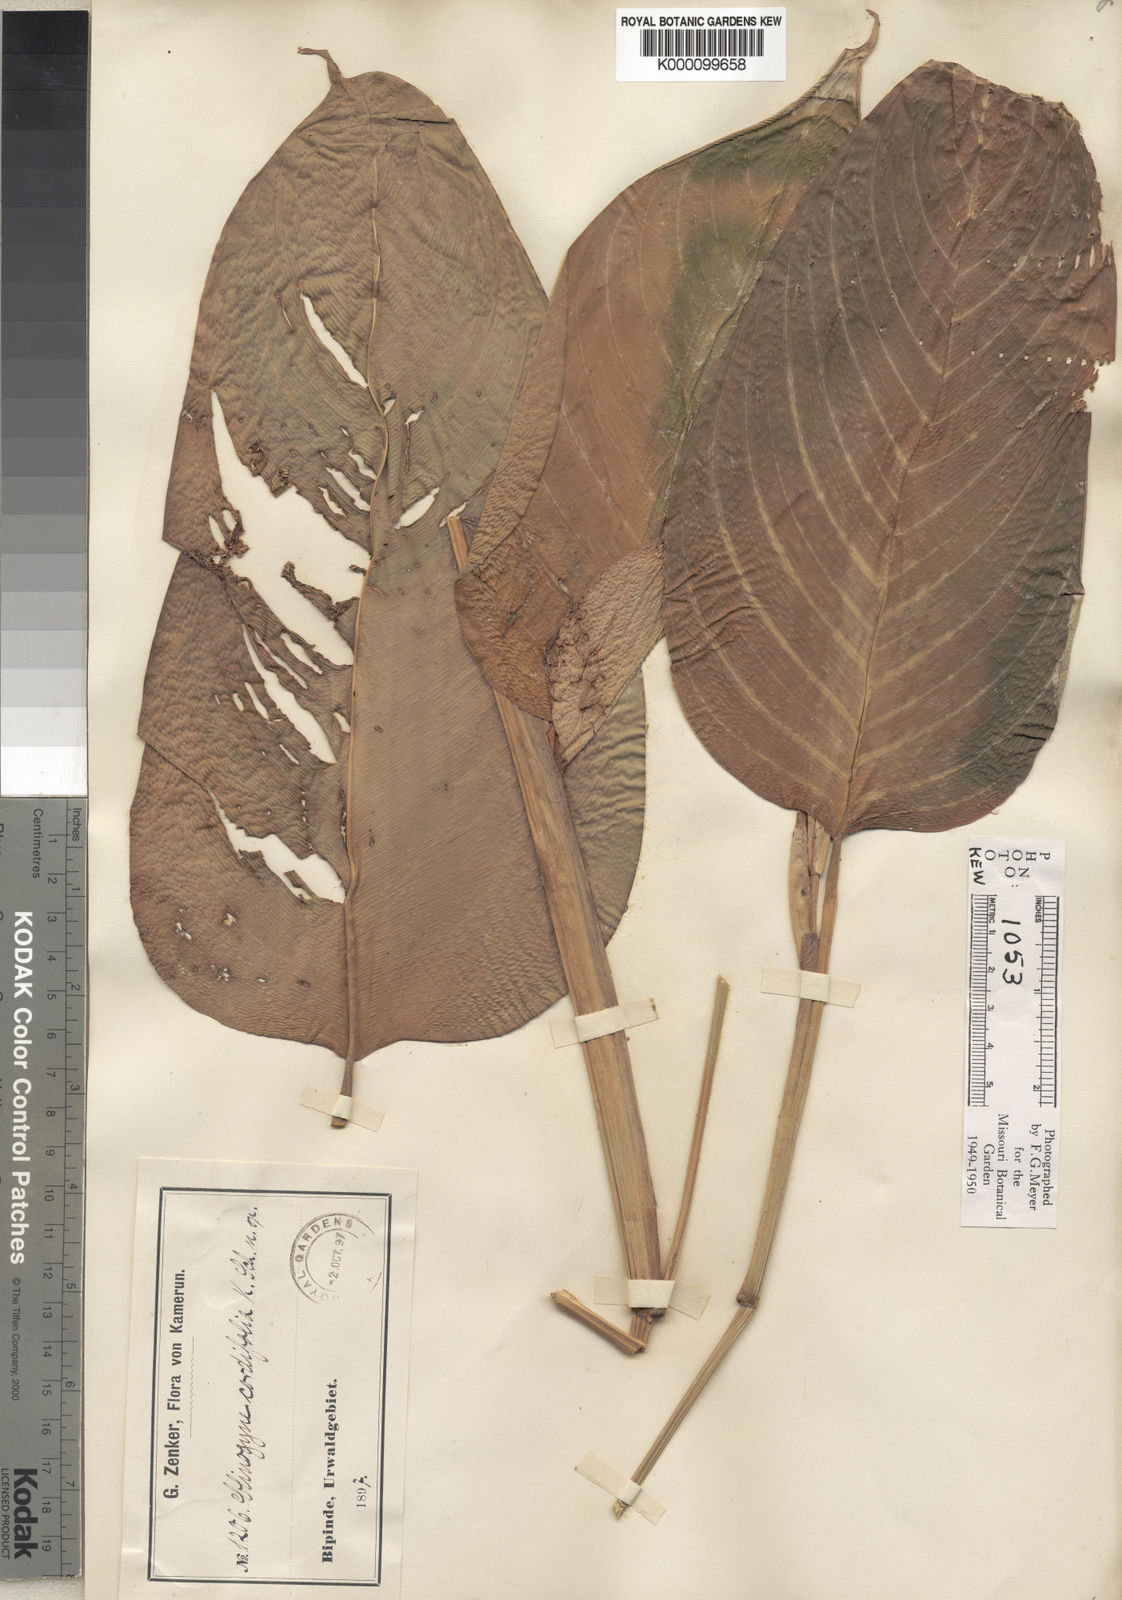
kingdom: Plantae
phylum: Tracheophyta
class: Liliopsida
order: Zingiberales
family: Marantaceae
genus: Marantochloa
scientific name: Marantochloa cordifolia
